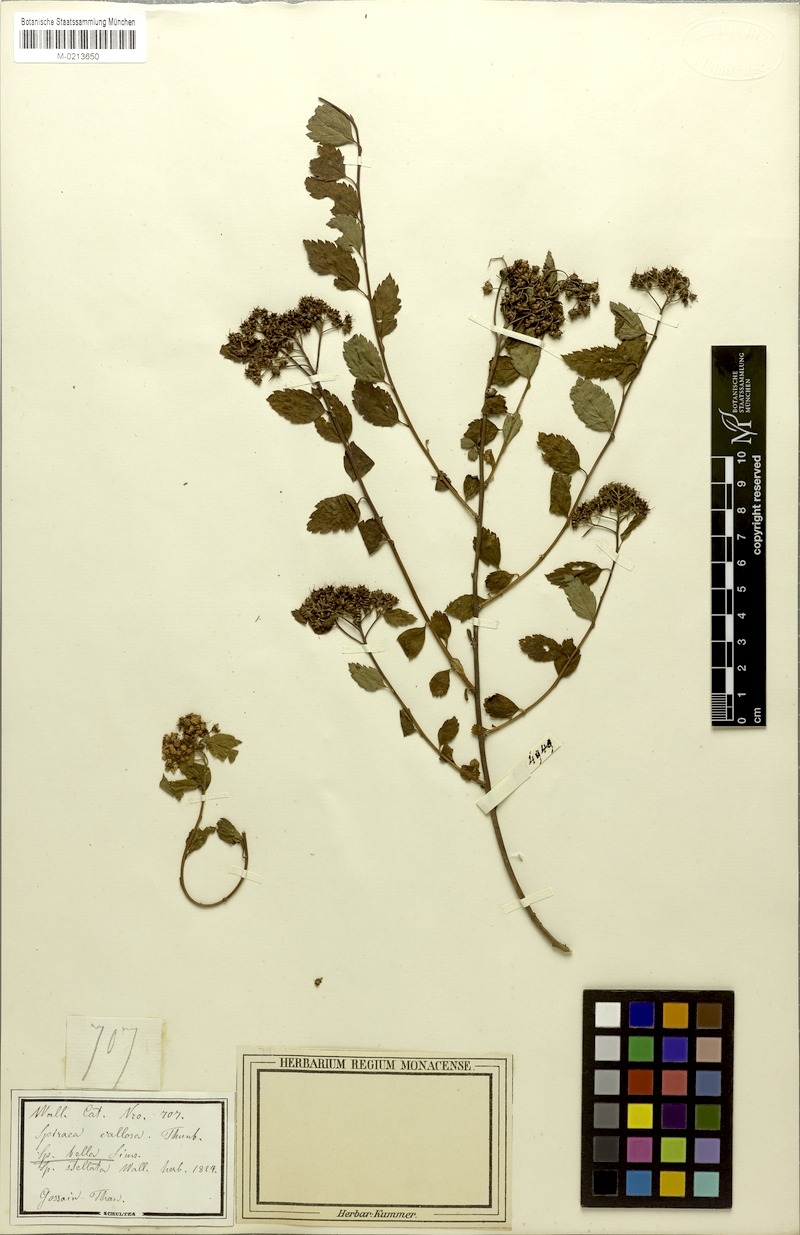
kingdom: Plantae
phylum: Tracheophyta
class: Magnoliopsida
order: Rosales
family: Rosaceae
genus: Spiraea
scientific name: Spiraea bella
